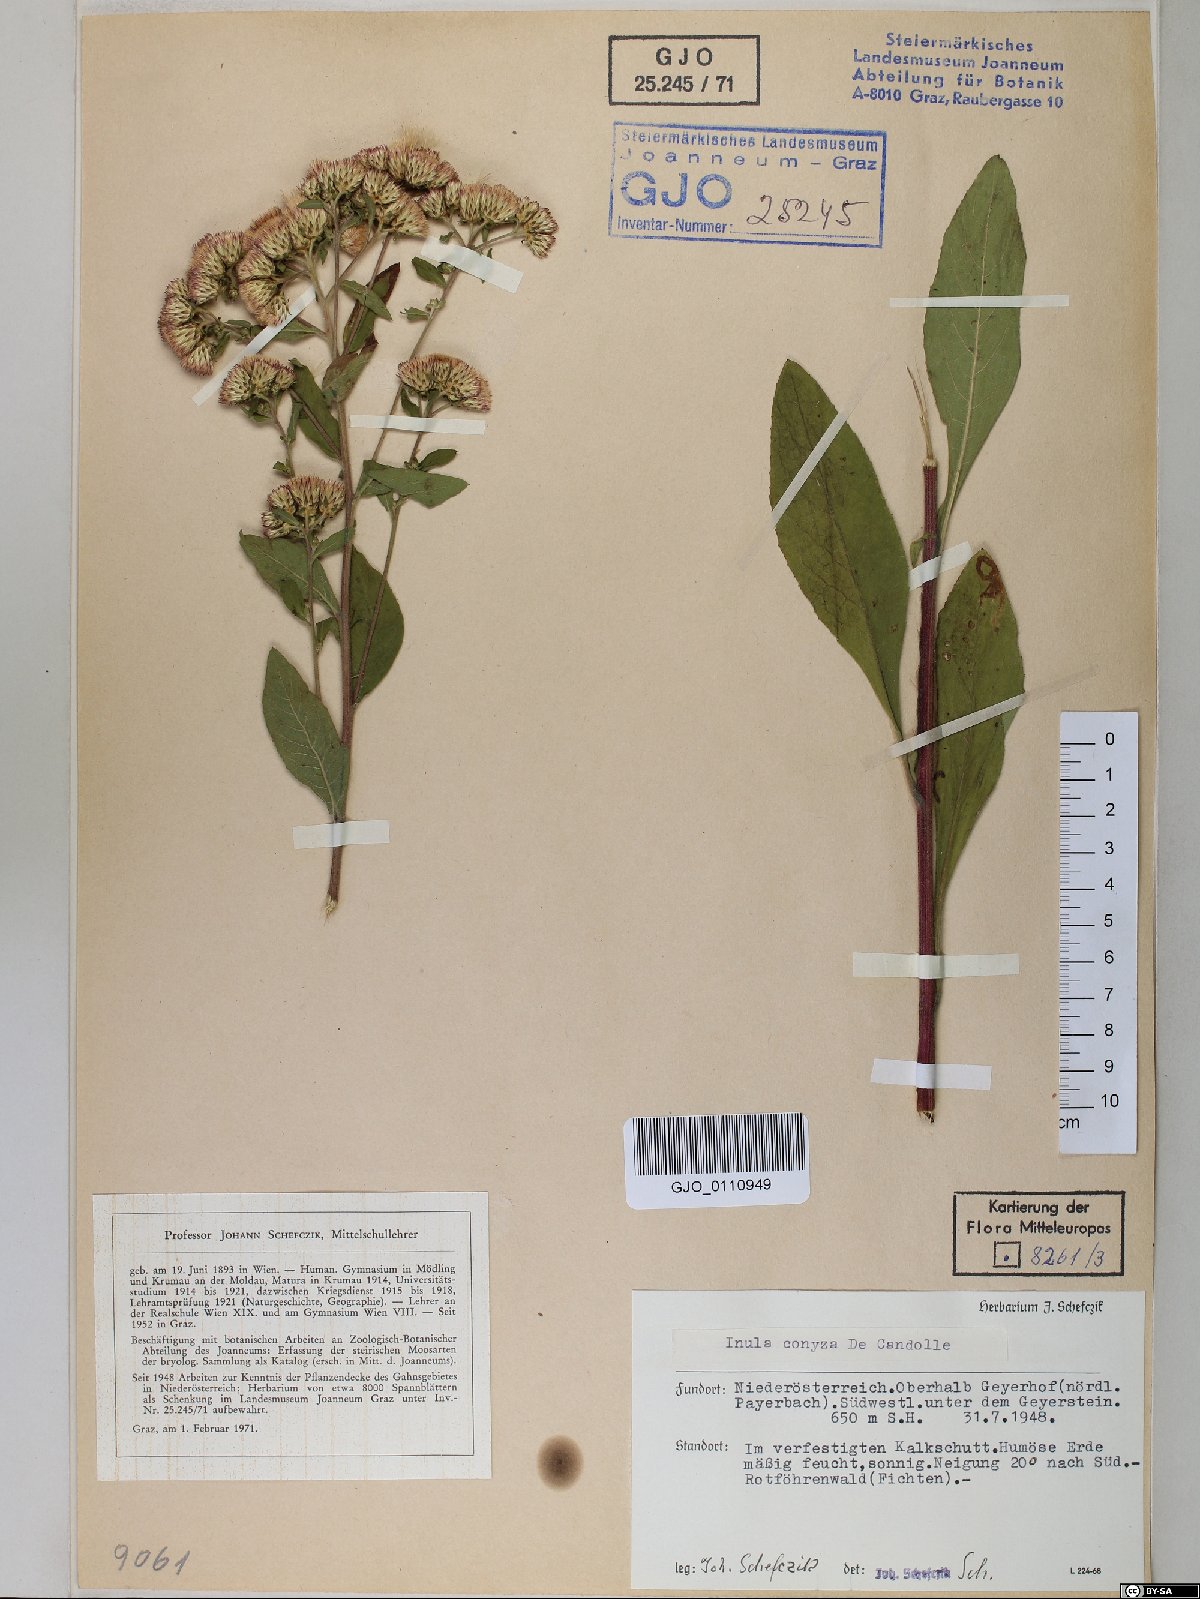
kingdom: Plantae
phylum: Tracheophyta
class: Magnoliopsida
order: Asterales
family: Asteraceae
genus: Pentanema
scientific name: Pentanema squarrosum
